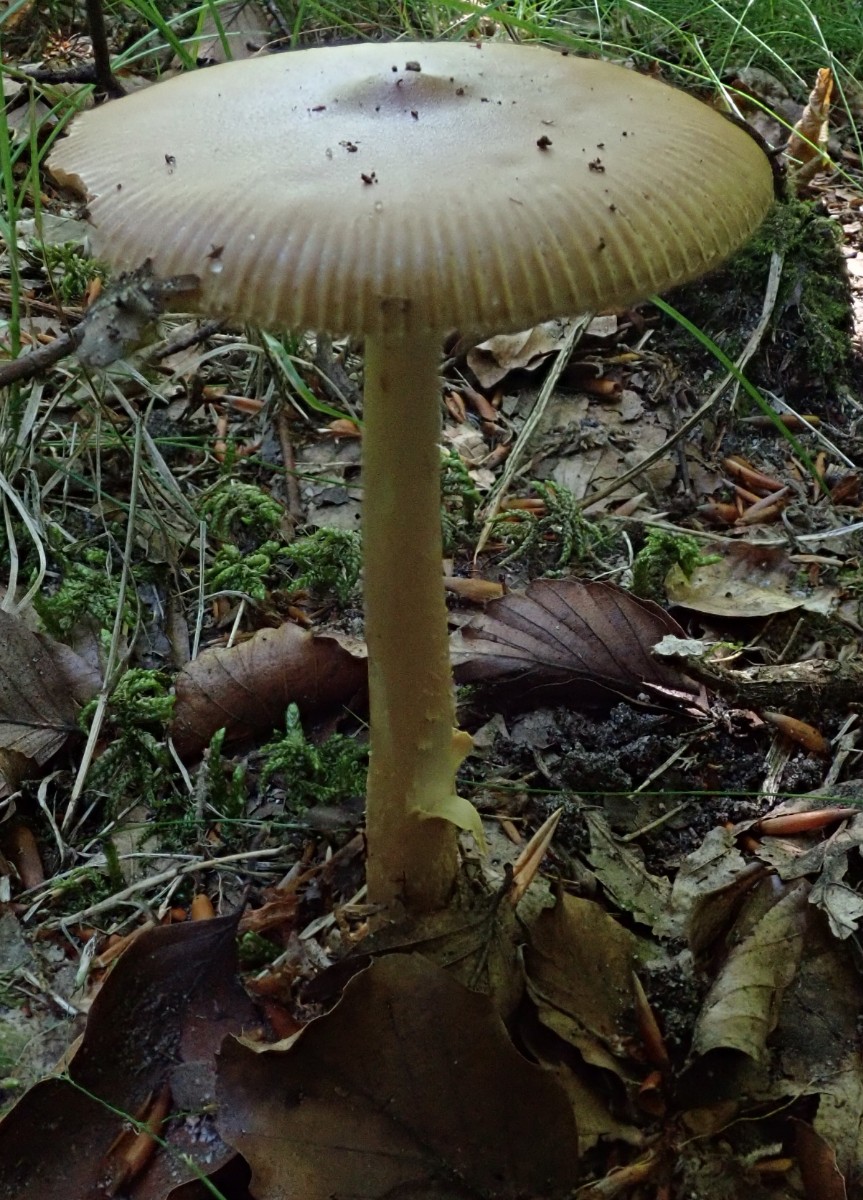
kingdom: Fungi
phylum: Basidiomycota
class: Agaricomycetes
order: Agaricales
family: Amanitaceae
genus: Amanita
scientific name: Amanita fulva
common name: brun kam-fluesvamp
